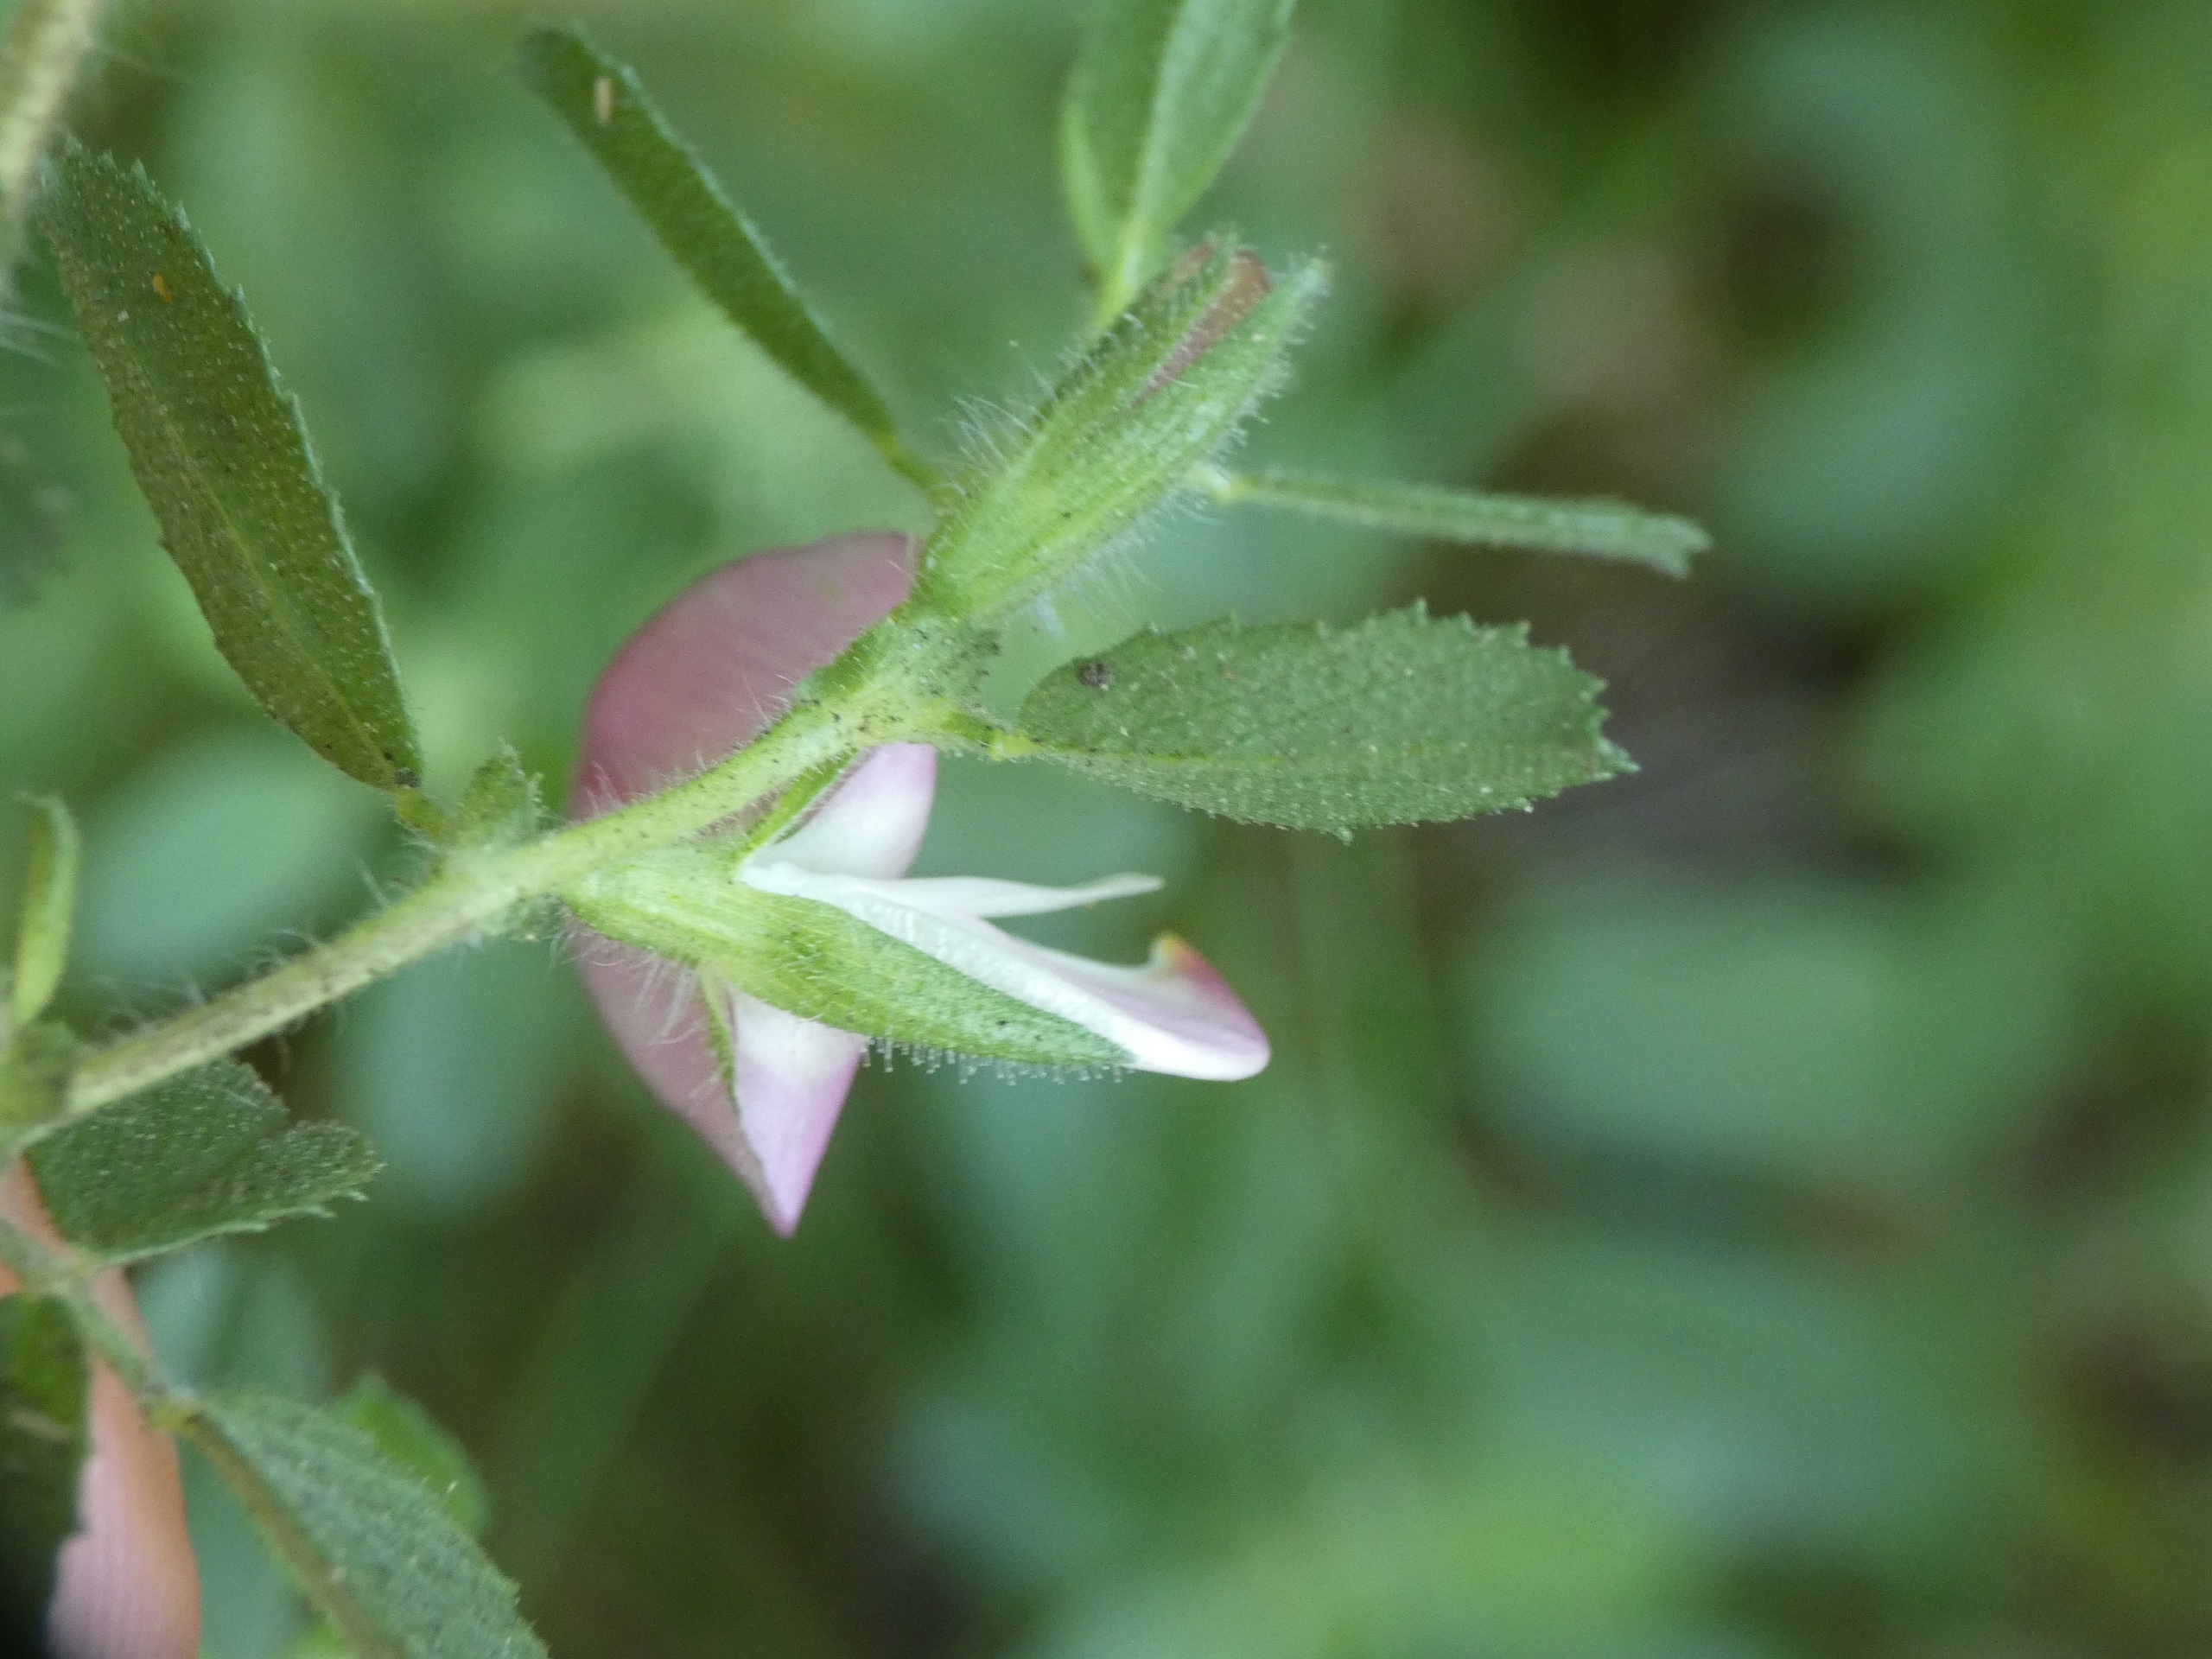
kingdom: Plantae
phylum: Tracheophyta
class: Magnoliopsida
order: Fabales
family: Fabaceae
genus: Ononis
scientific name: Ononis spinosa
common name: Mark-krageklo
